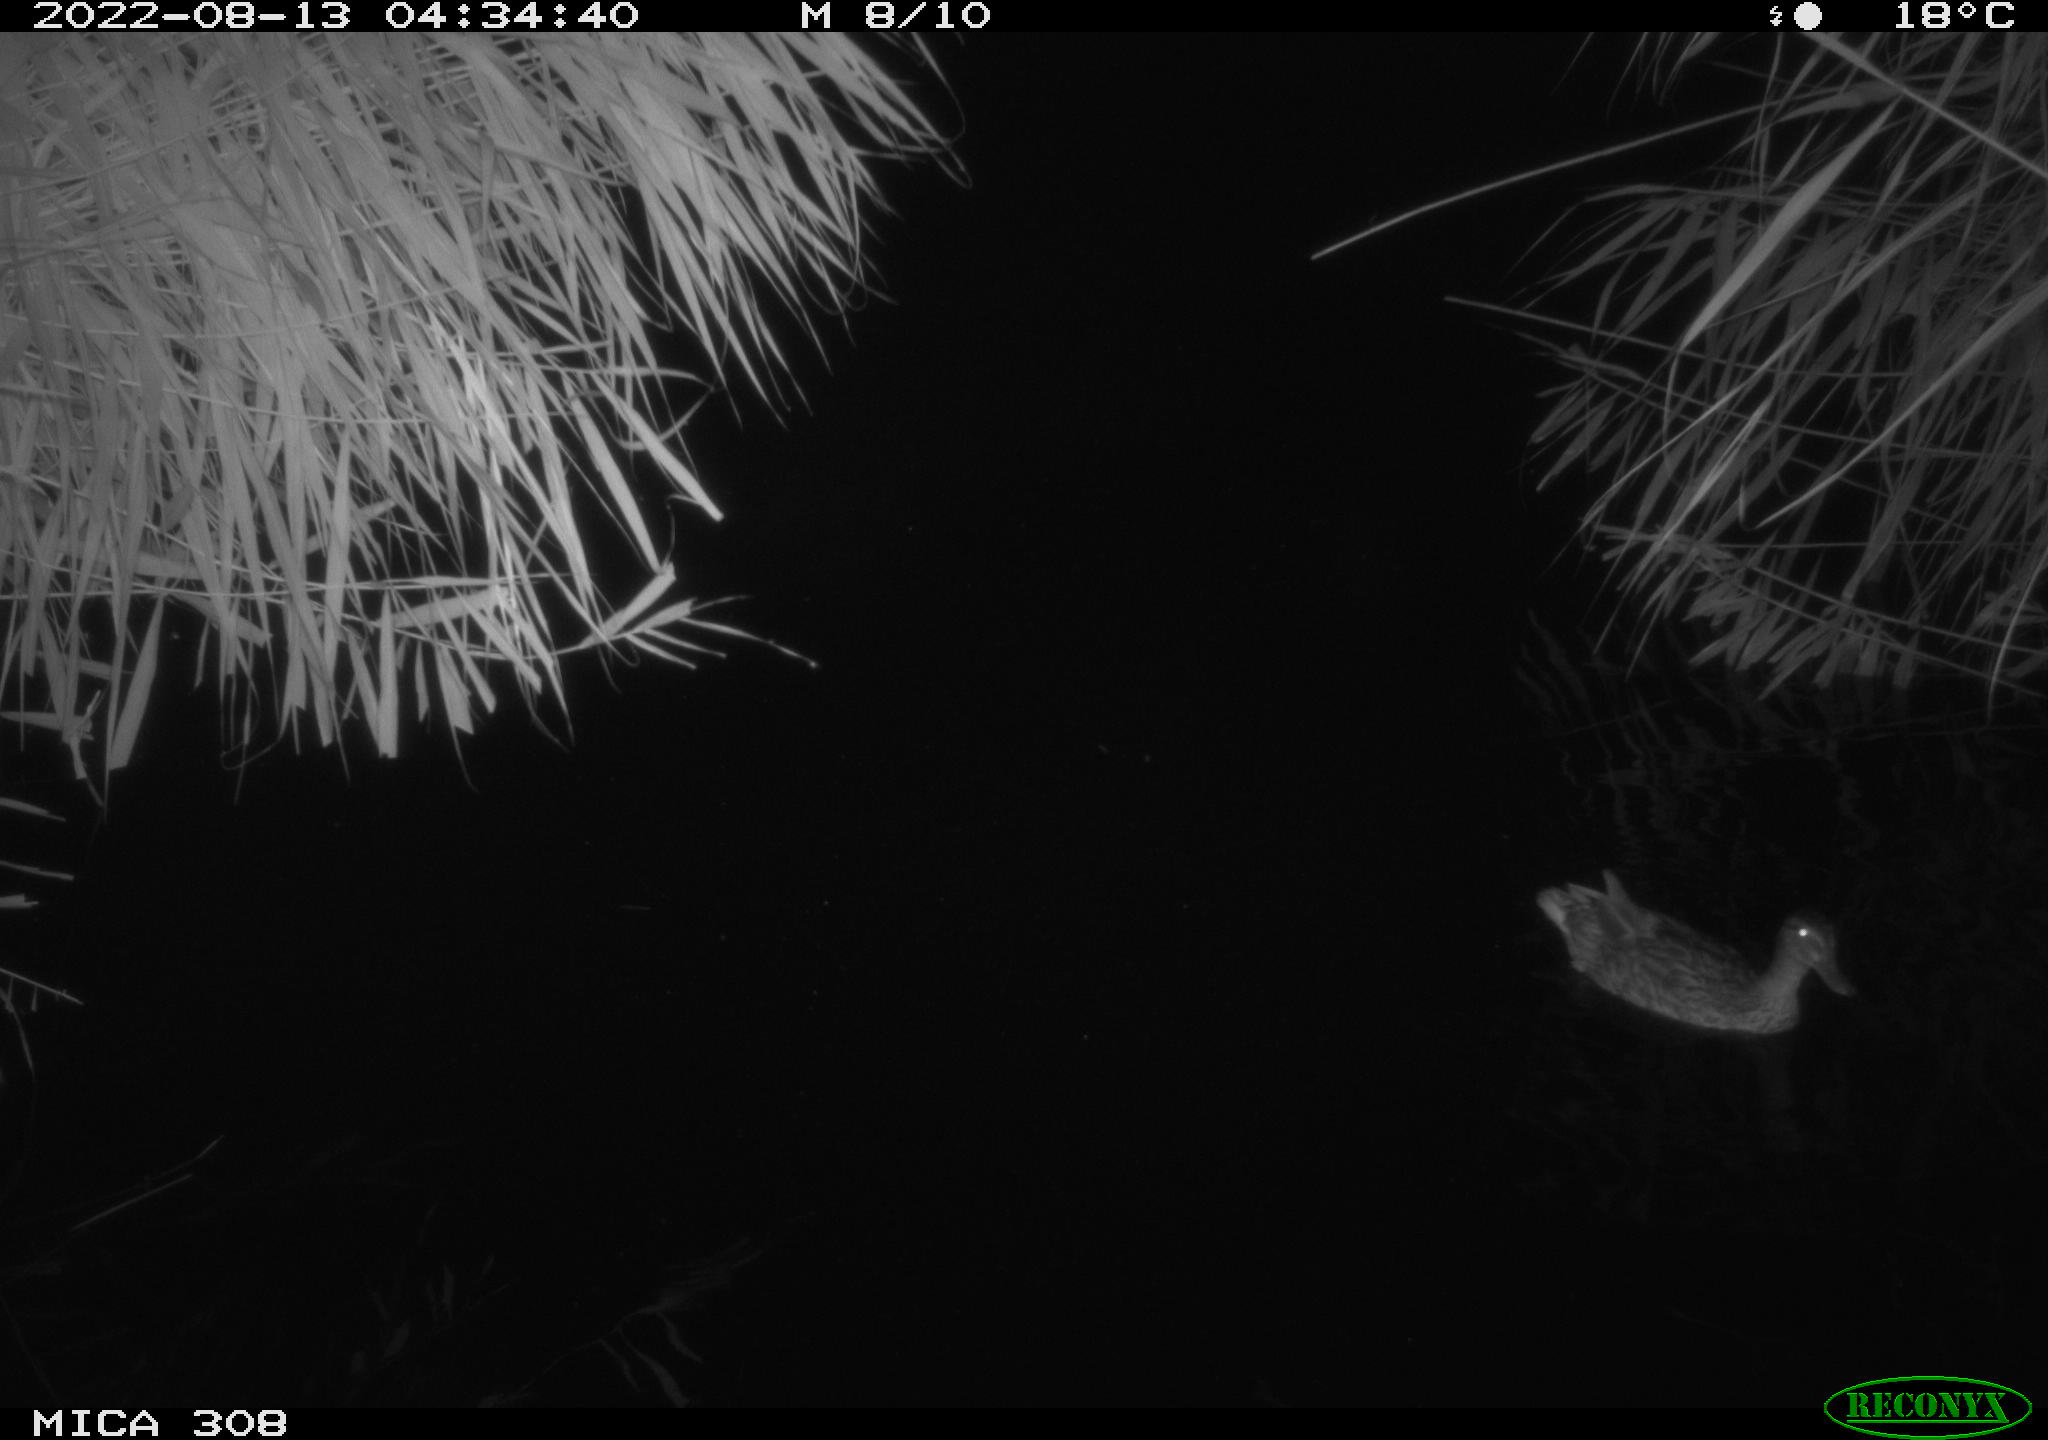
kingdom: Animalia
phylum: Chordata
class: Aves
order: Anseriformes
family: Anatidae
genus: Anas
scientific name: Anas platyrhynchos
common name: Mallard
